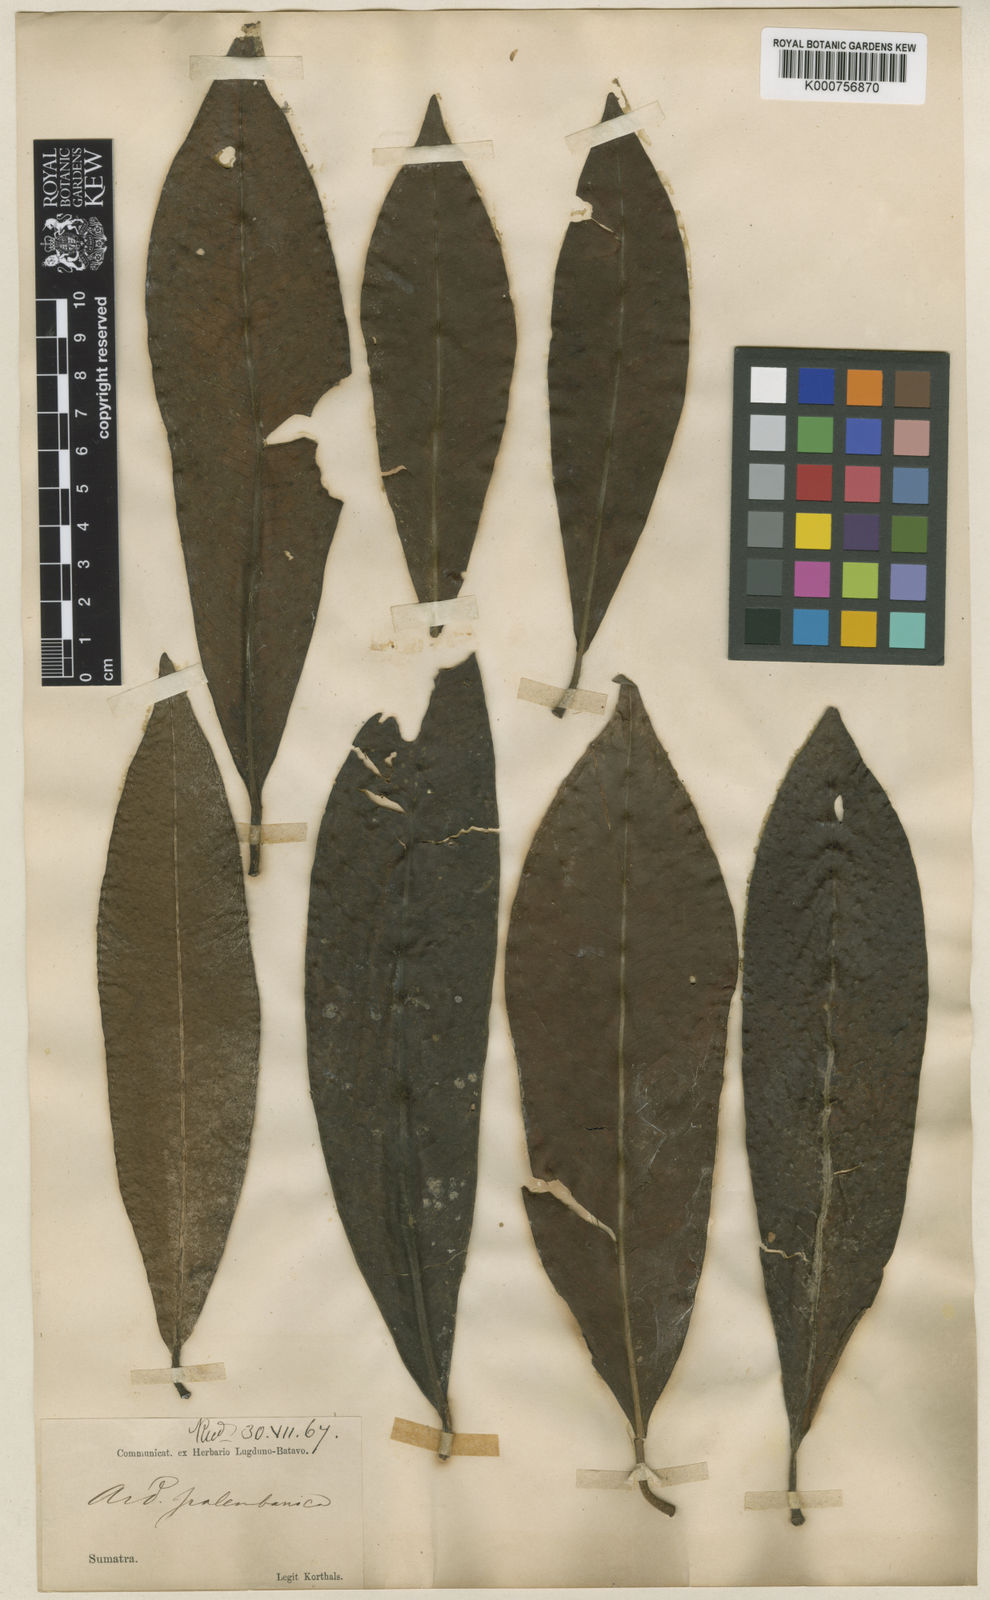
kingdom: Plantae
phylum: Tracheophyta
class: Magnoliopsida
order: Ericales
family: Primulaceae
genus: Ardisia
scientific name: Ardisia lurida
